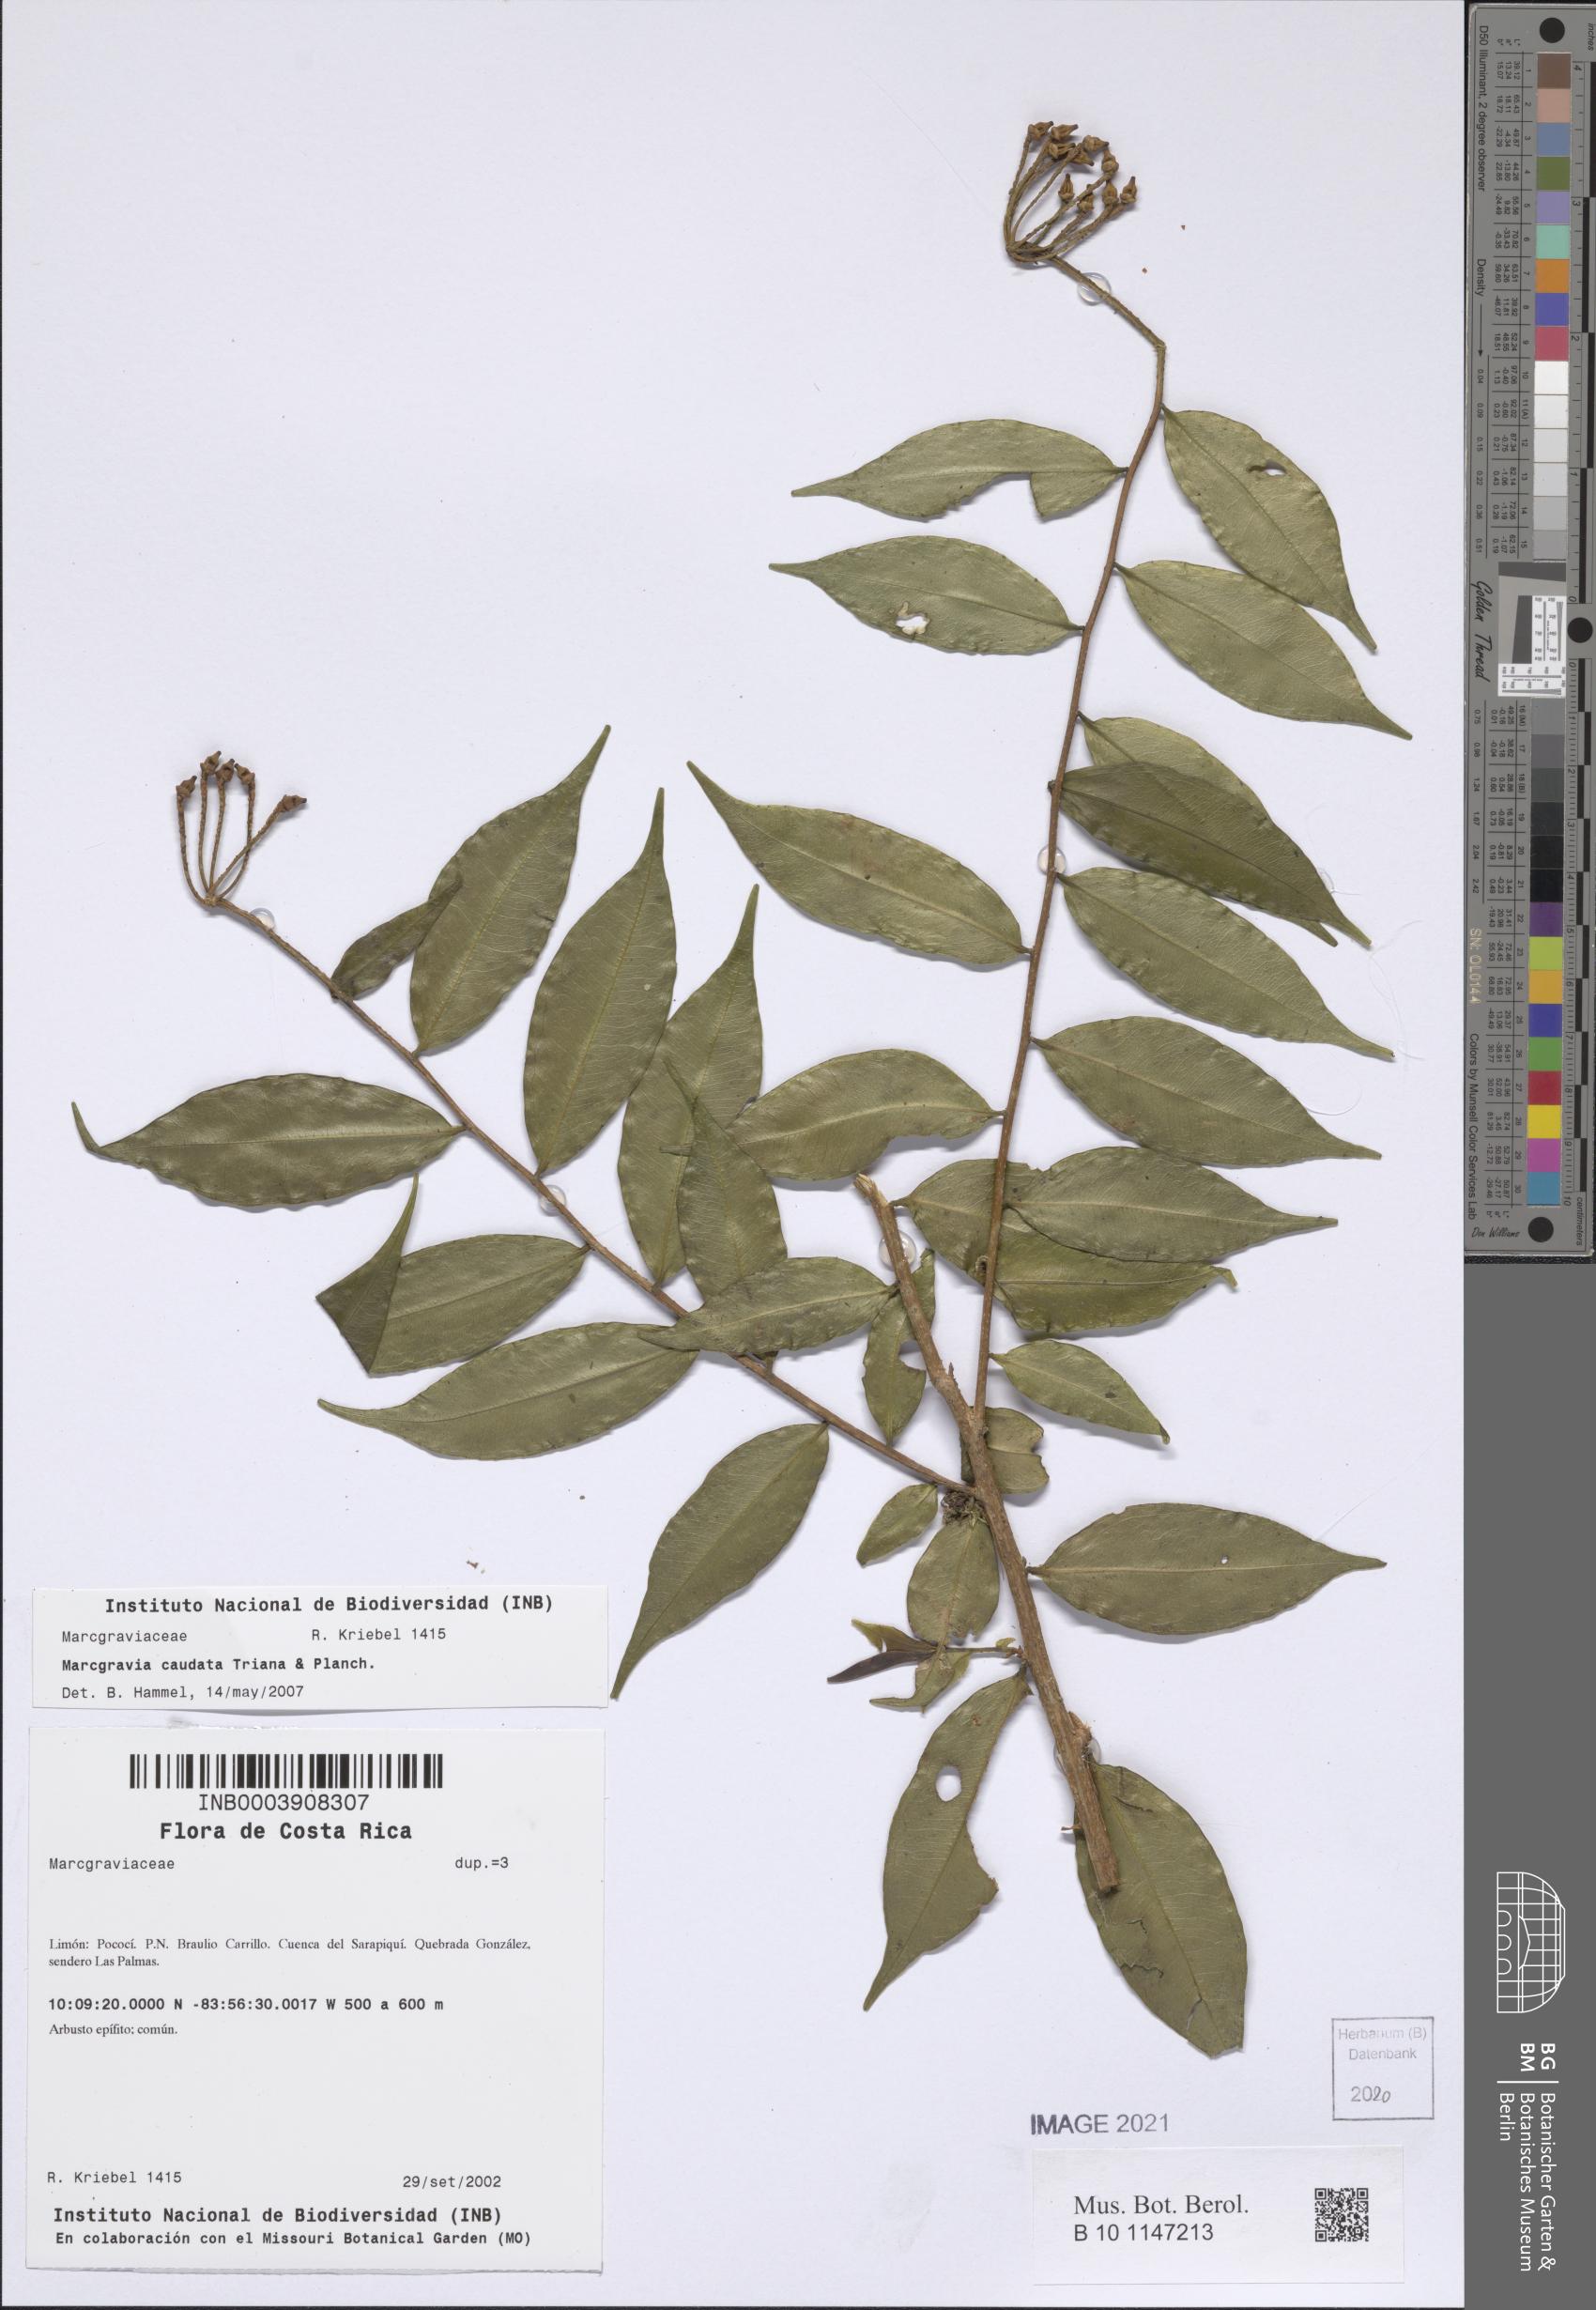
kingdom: Plantae
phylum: Tracheophyta
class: Magnoliopsida
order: Ericales
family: Marcgraviaceae
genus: Marcgravia
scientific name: Marcgravia caudata
